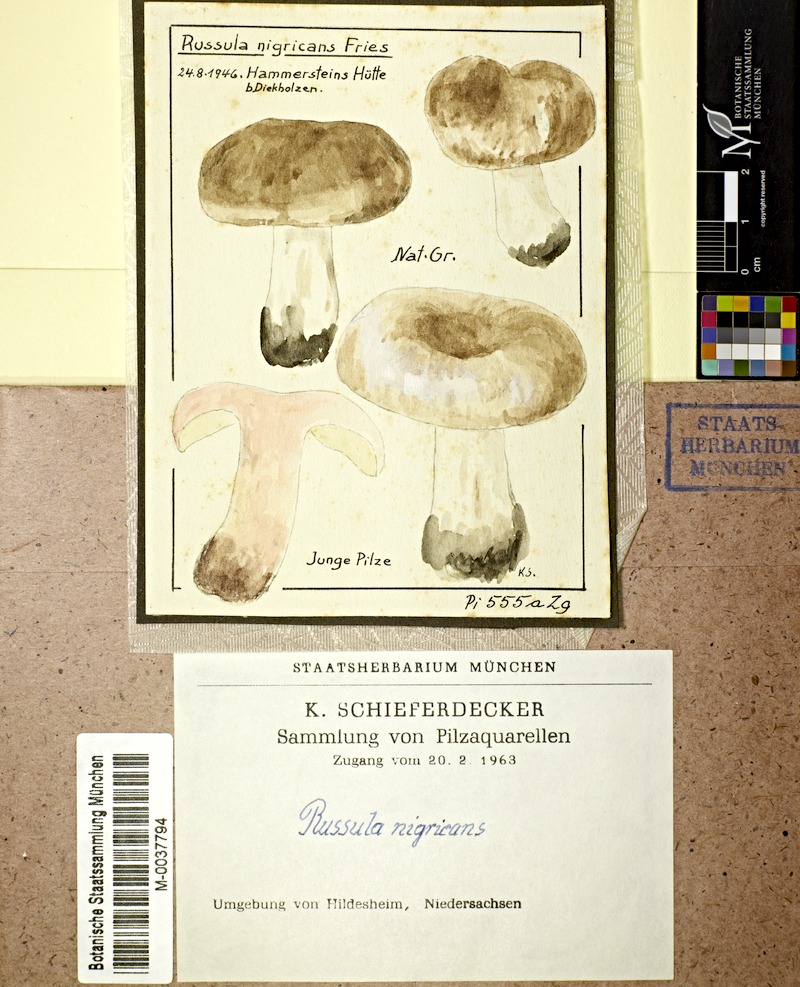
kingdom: Fungi
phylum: Basidiomycota
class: Agaricomycetes
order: Russulales
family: Russulaceae
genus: Russula
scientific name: Russula adusta
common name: Winecork brittlegill
